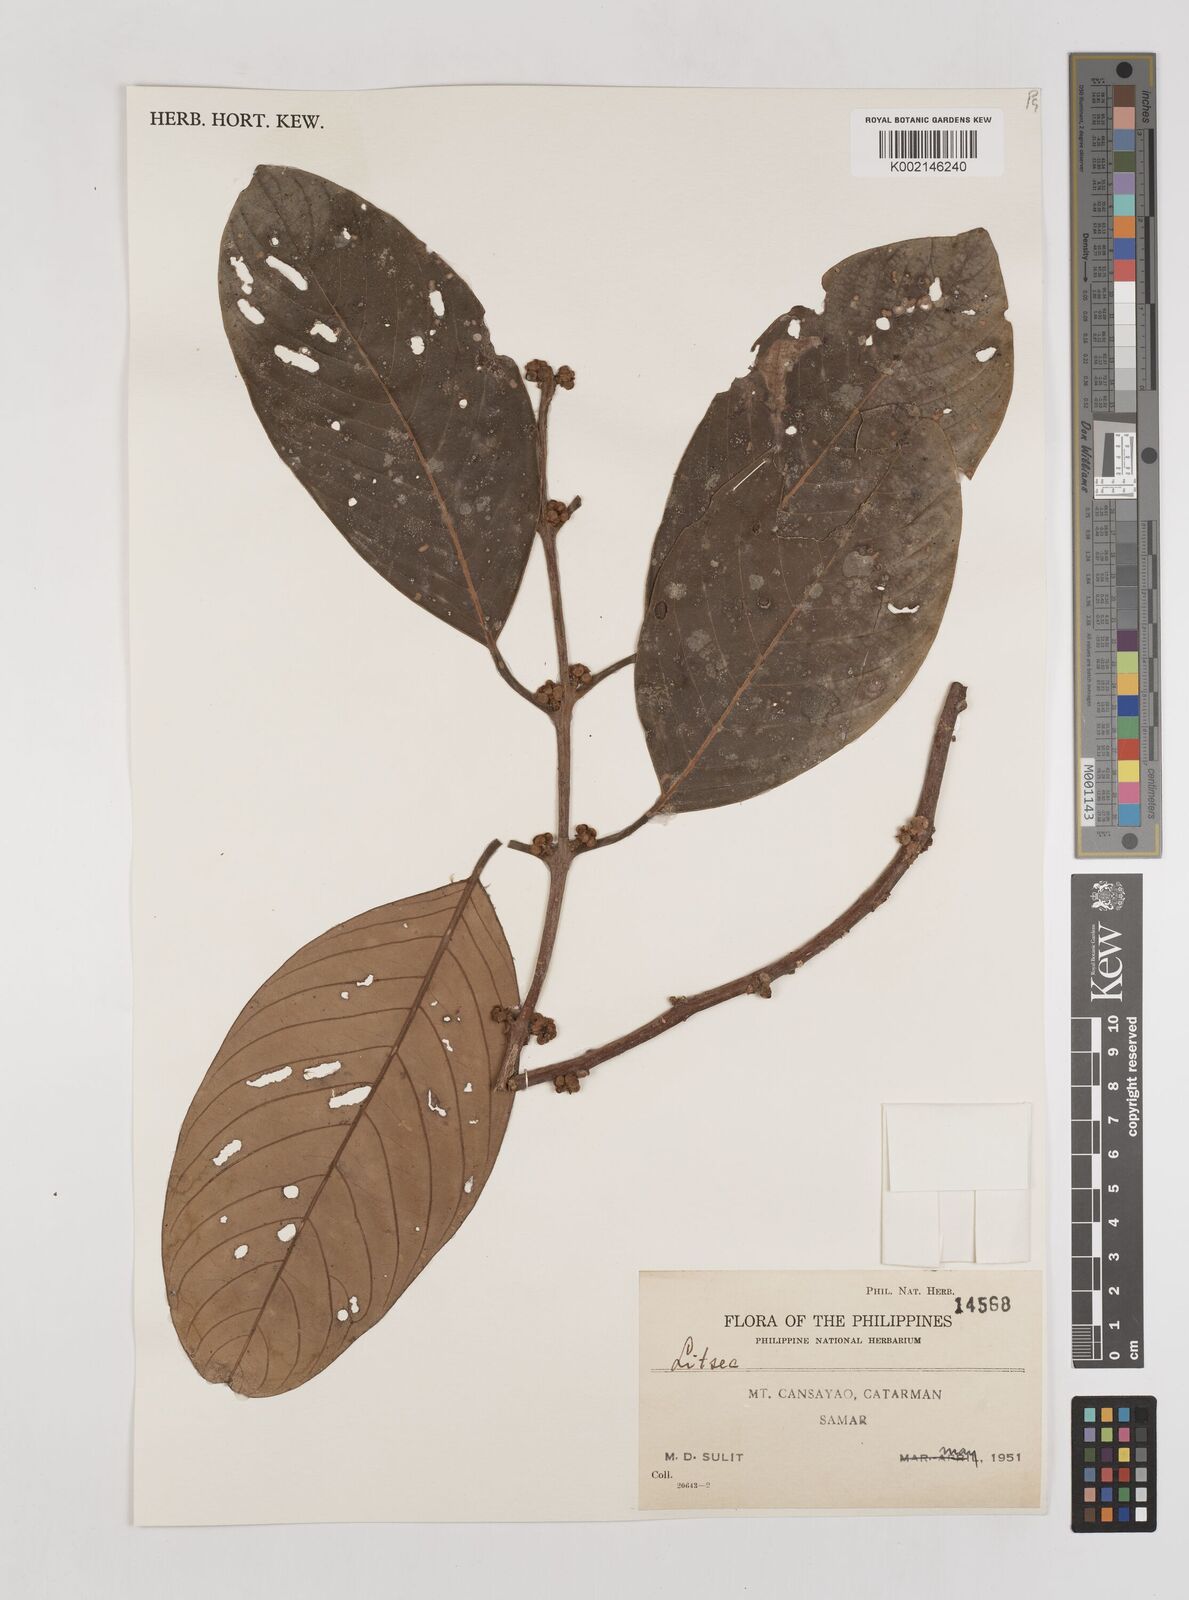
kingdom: Plantae
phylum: Tracheophyta
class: Magnoliopsida
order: Laurales
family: Lauraceae
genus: Litsea
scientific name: Litsea
